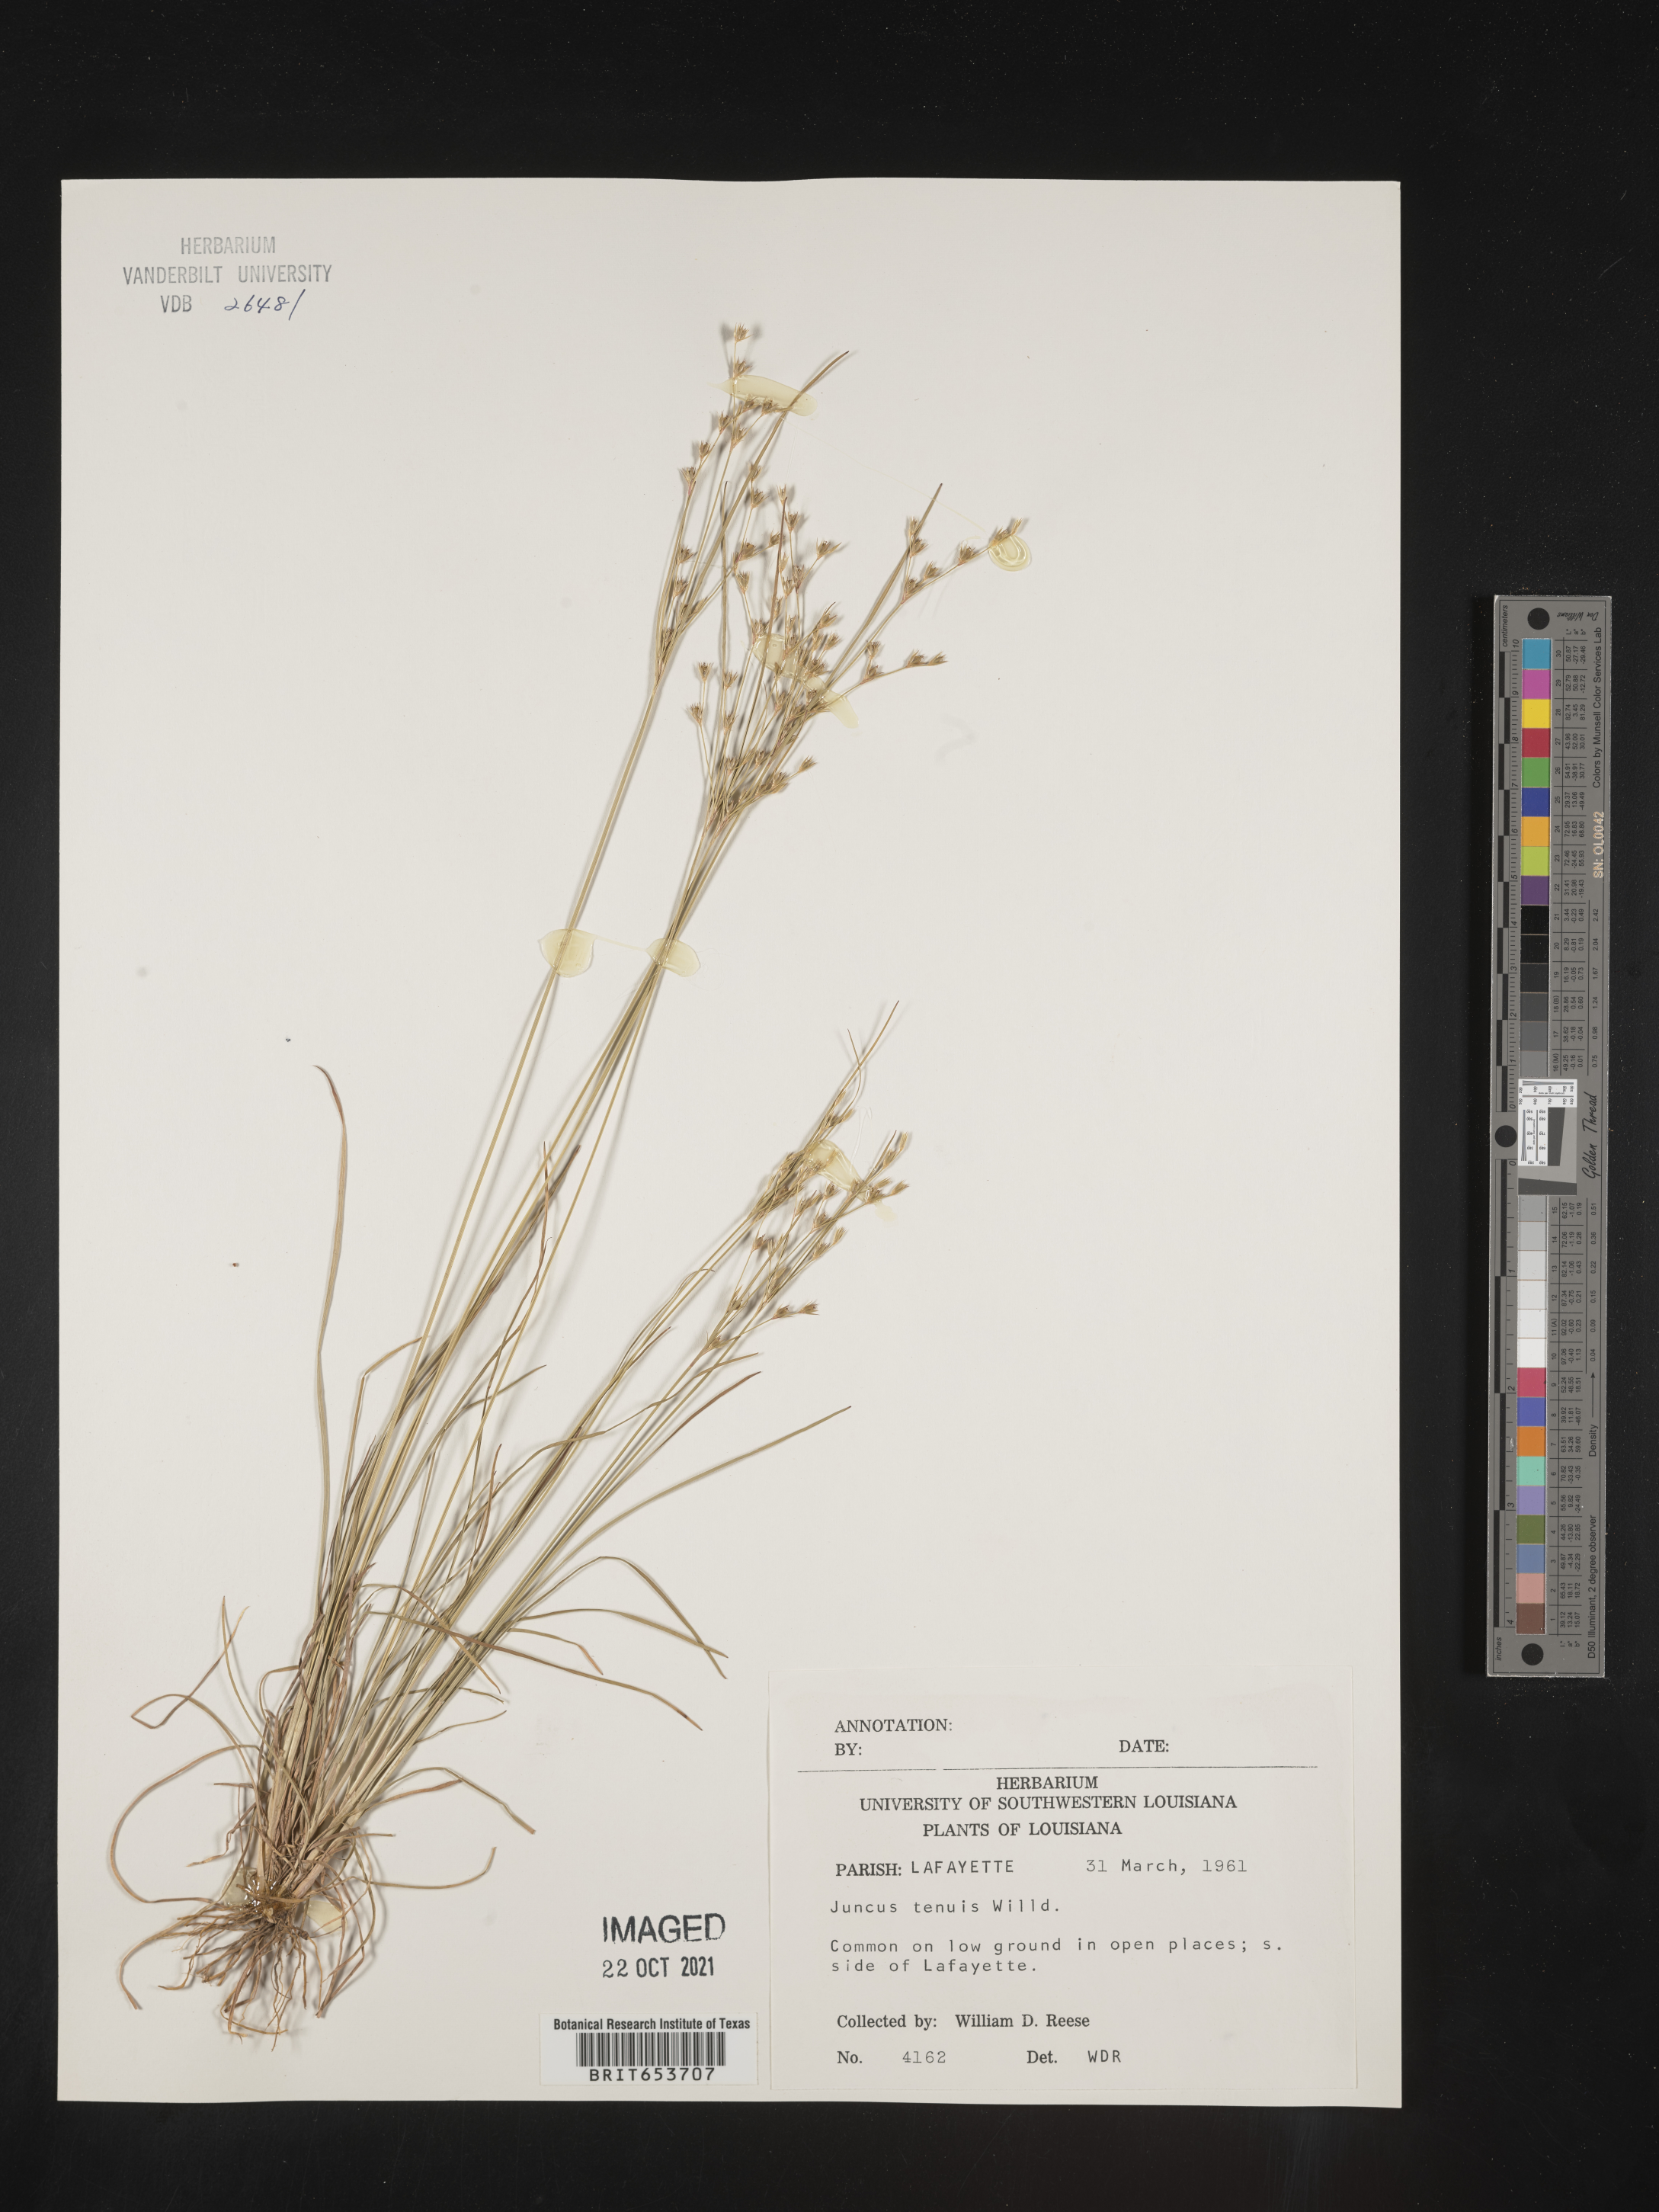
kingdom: Plantae
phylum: Tracheophyta
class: Liliopsida
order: Poales
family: Juncaceae
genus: Juncus
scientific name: Juncus tenuis
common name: Slender rush
